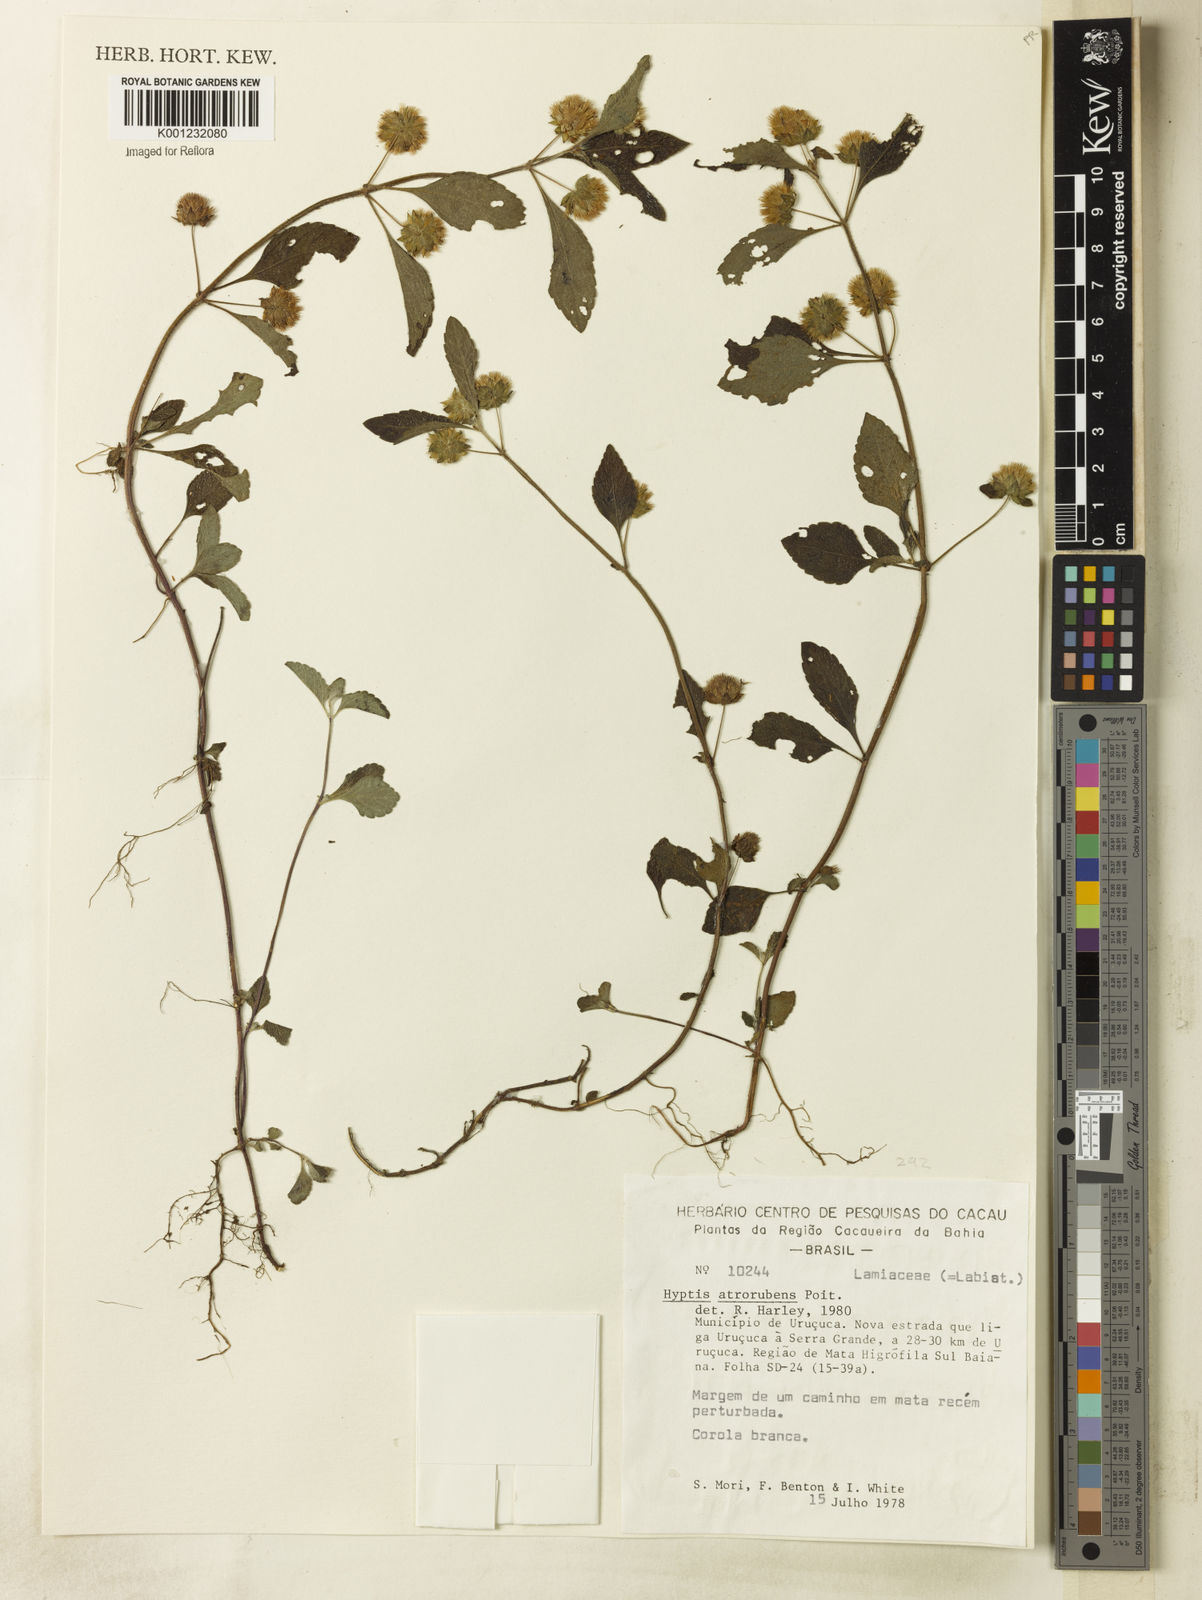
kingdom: Plantae
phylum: Tracheophyta
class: Magnoliopsida
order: Lamiales
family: Lamiaceae
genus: Hyptis
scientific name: Hyptis atrorubens
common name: Lanmant
